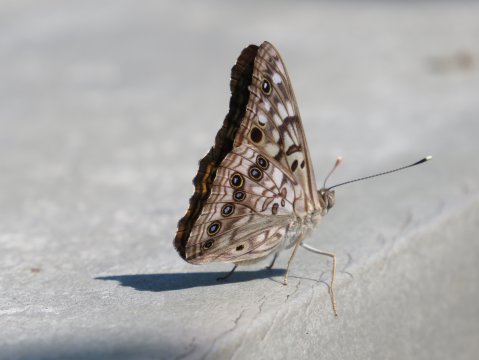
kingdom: Animalia
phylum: Arthropoda
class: Insecta
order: Lepidoptera
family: Nymphalidae
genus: Asterocampa
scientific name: Asterocampa celtis
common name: Hackberry Emperor
